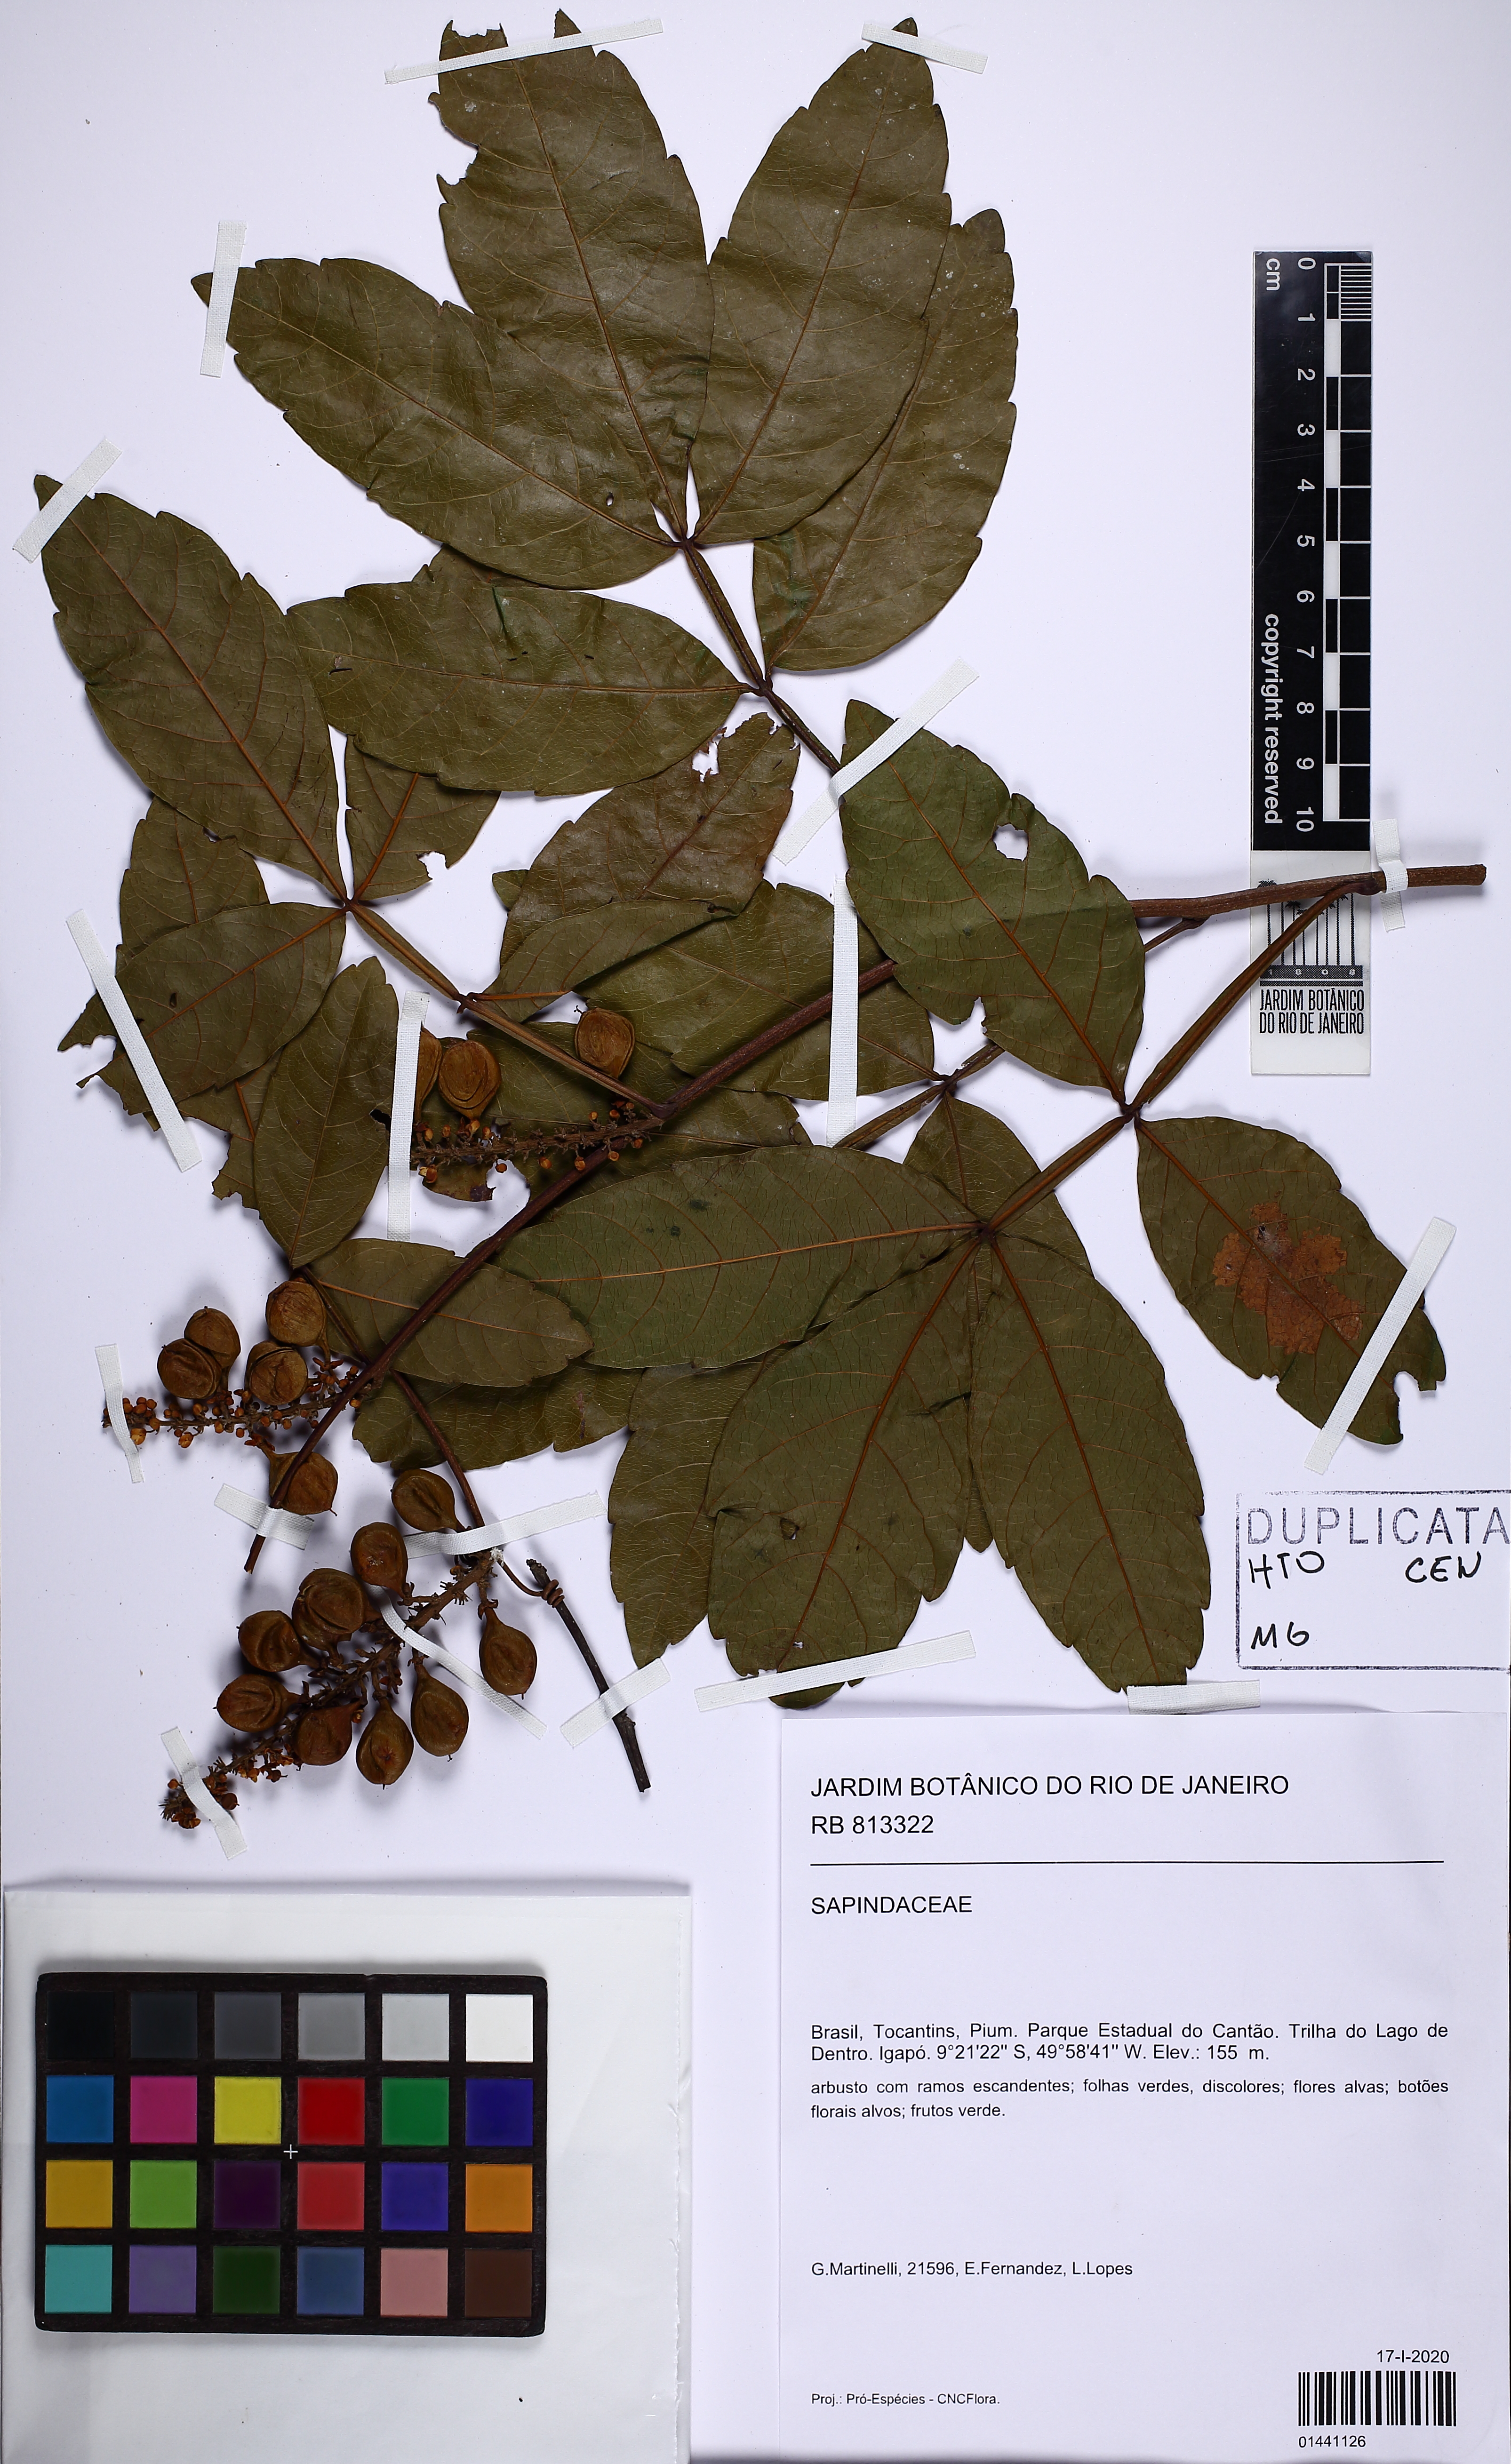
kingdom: Plantae
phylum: Tracheophyta
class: Magnoliopsida
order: Sapindales
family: Sapindaceae
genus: Paullinia
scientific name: Paullinia
